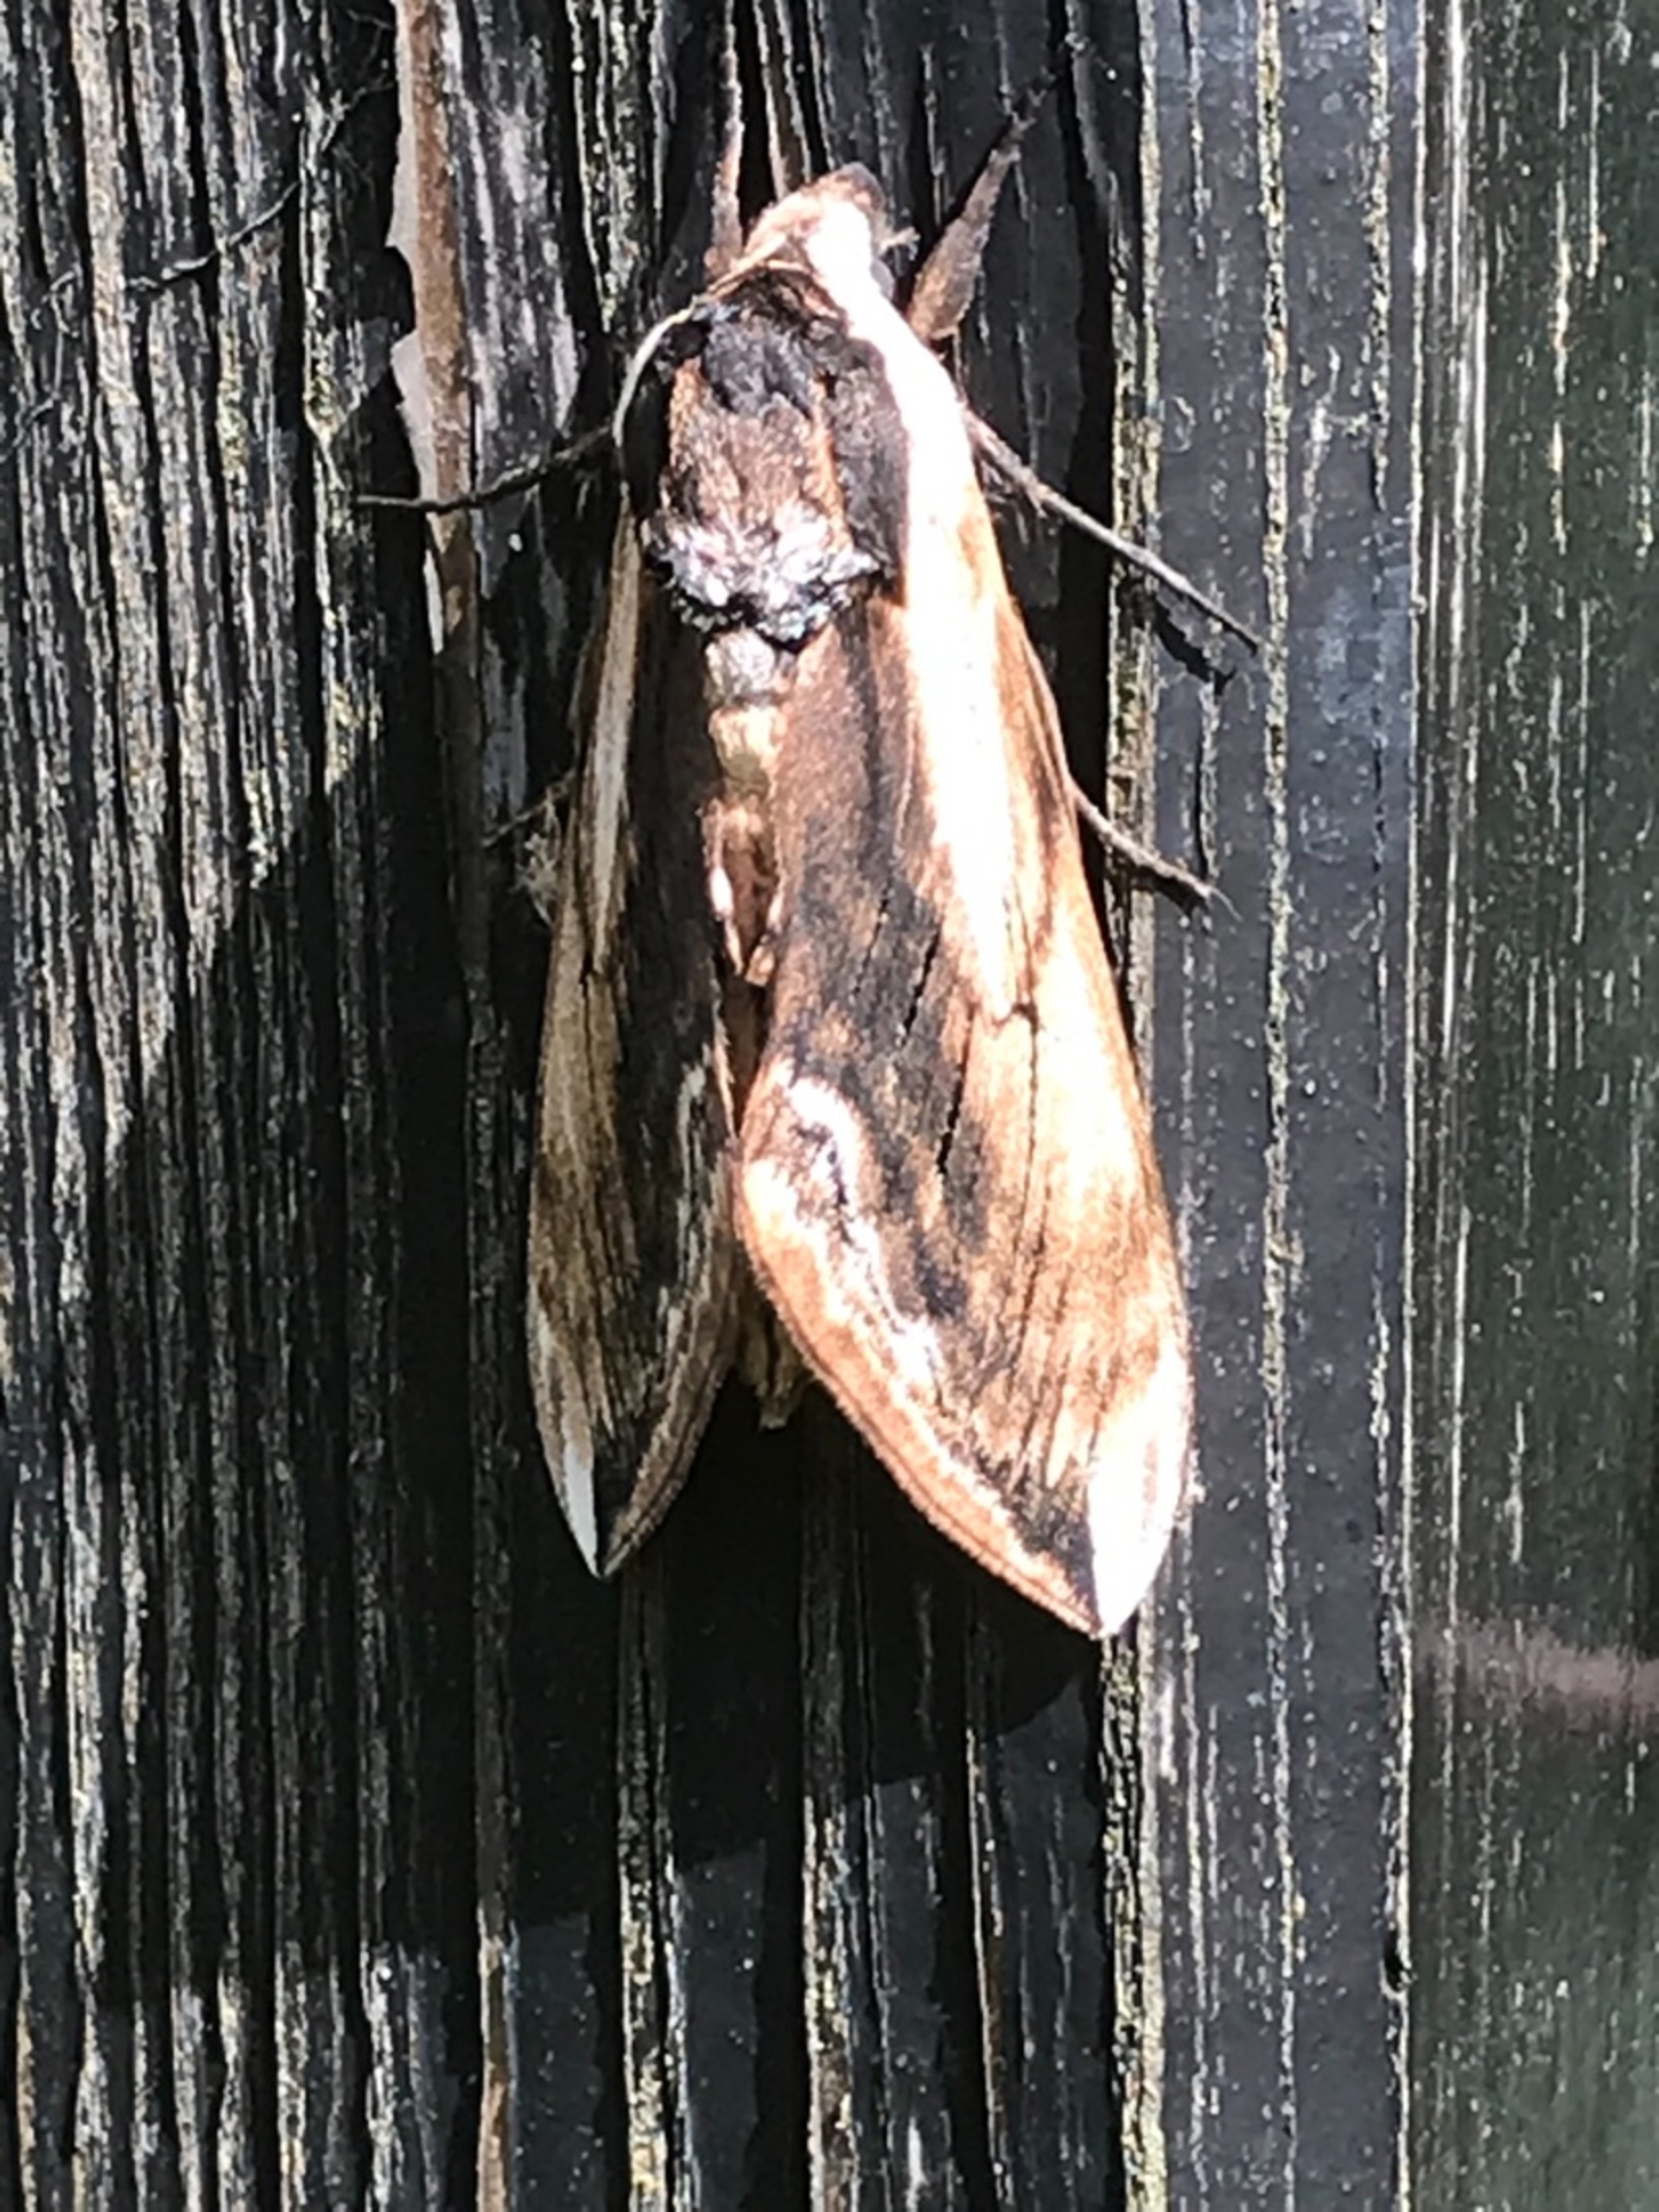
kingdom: Animalia
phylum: Arthropoda
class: Insecta
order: Lepidoptera
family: Sphingidae
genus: Sphinx
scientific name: Sphinx ligustri
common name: Ligustersværmer
